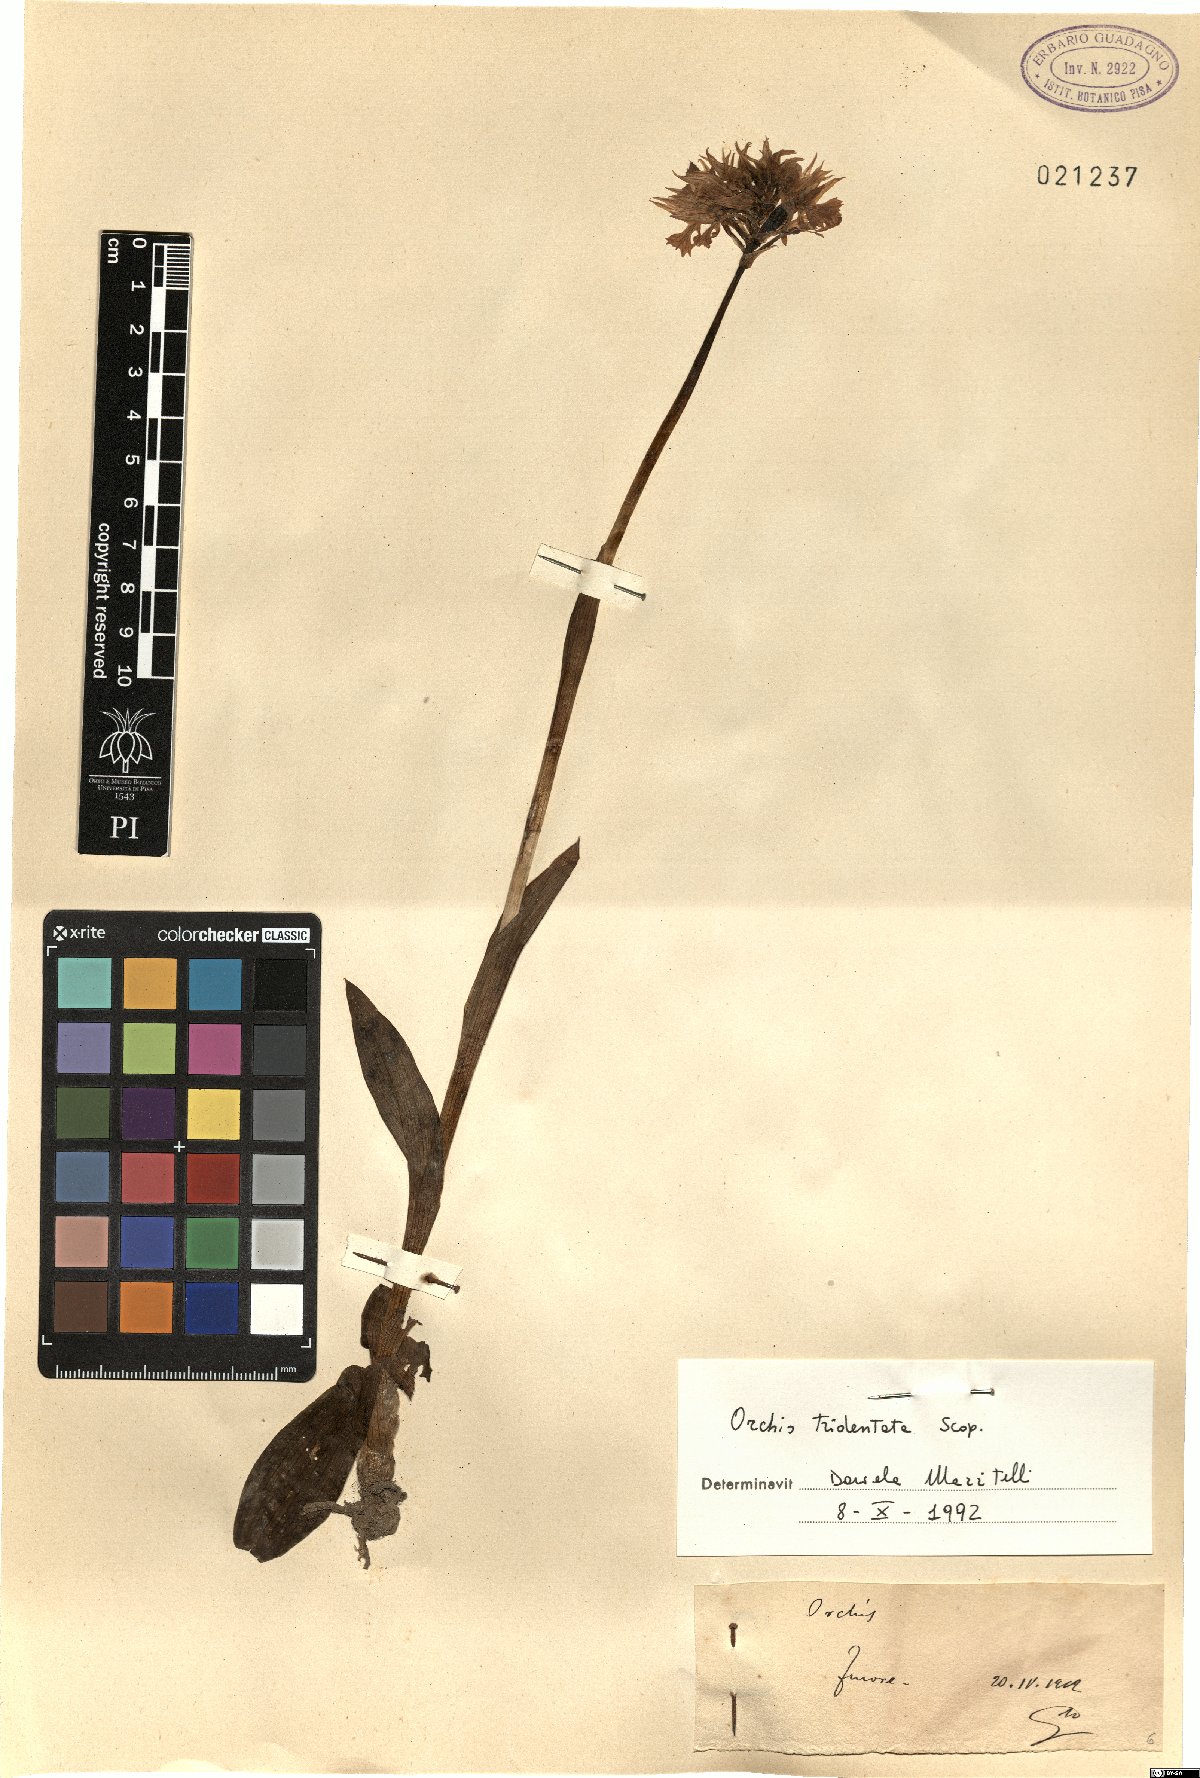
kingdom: Plantae
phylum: Tracheophyta
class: Liliopsida
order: Asparagales
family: Orchidaceae
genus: Neotinea
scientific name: Neotinea tridentata
